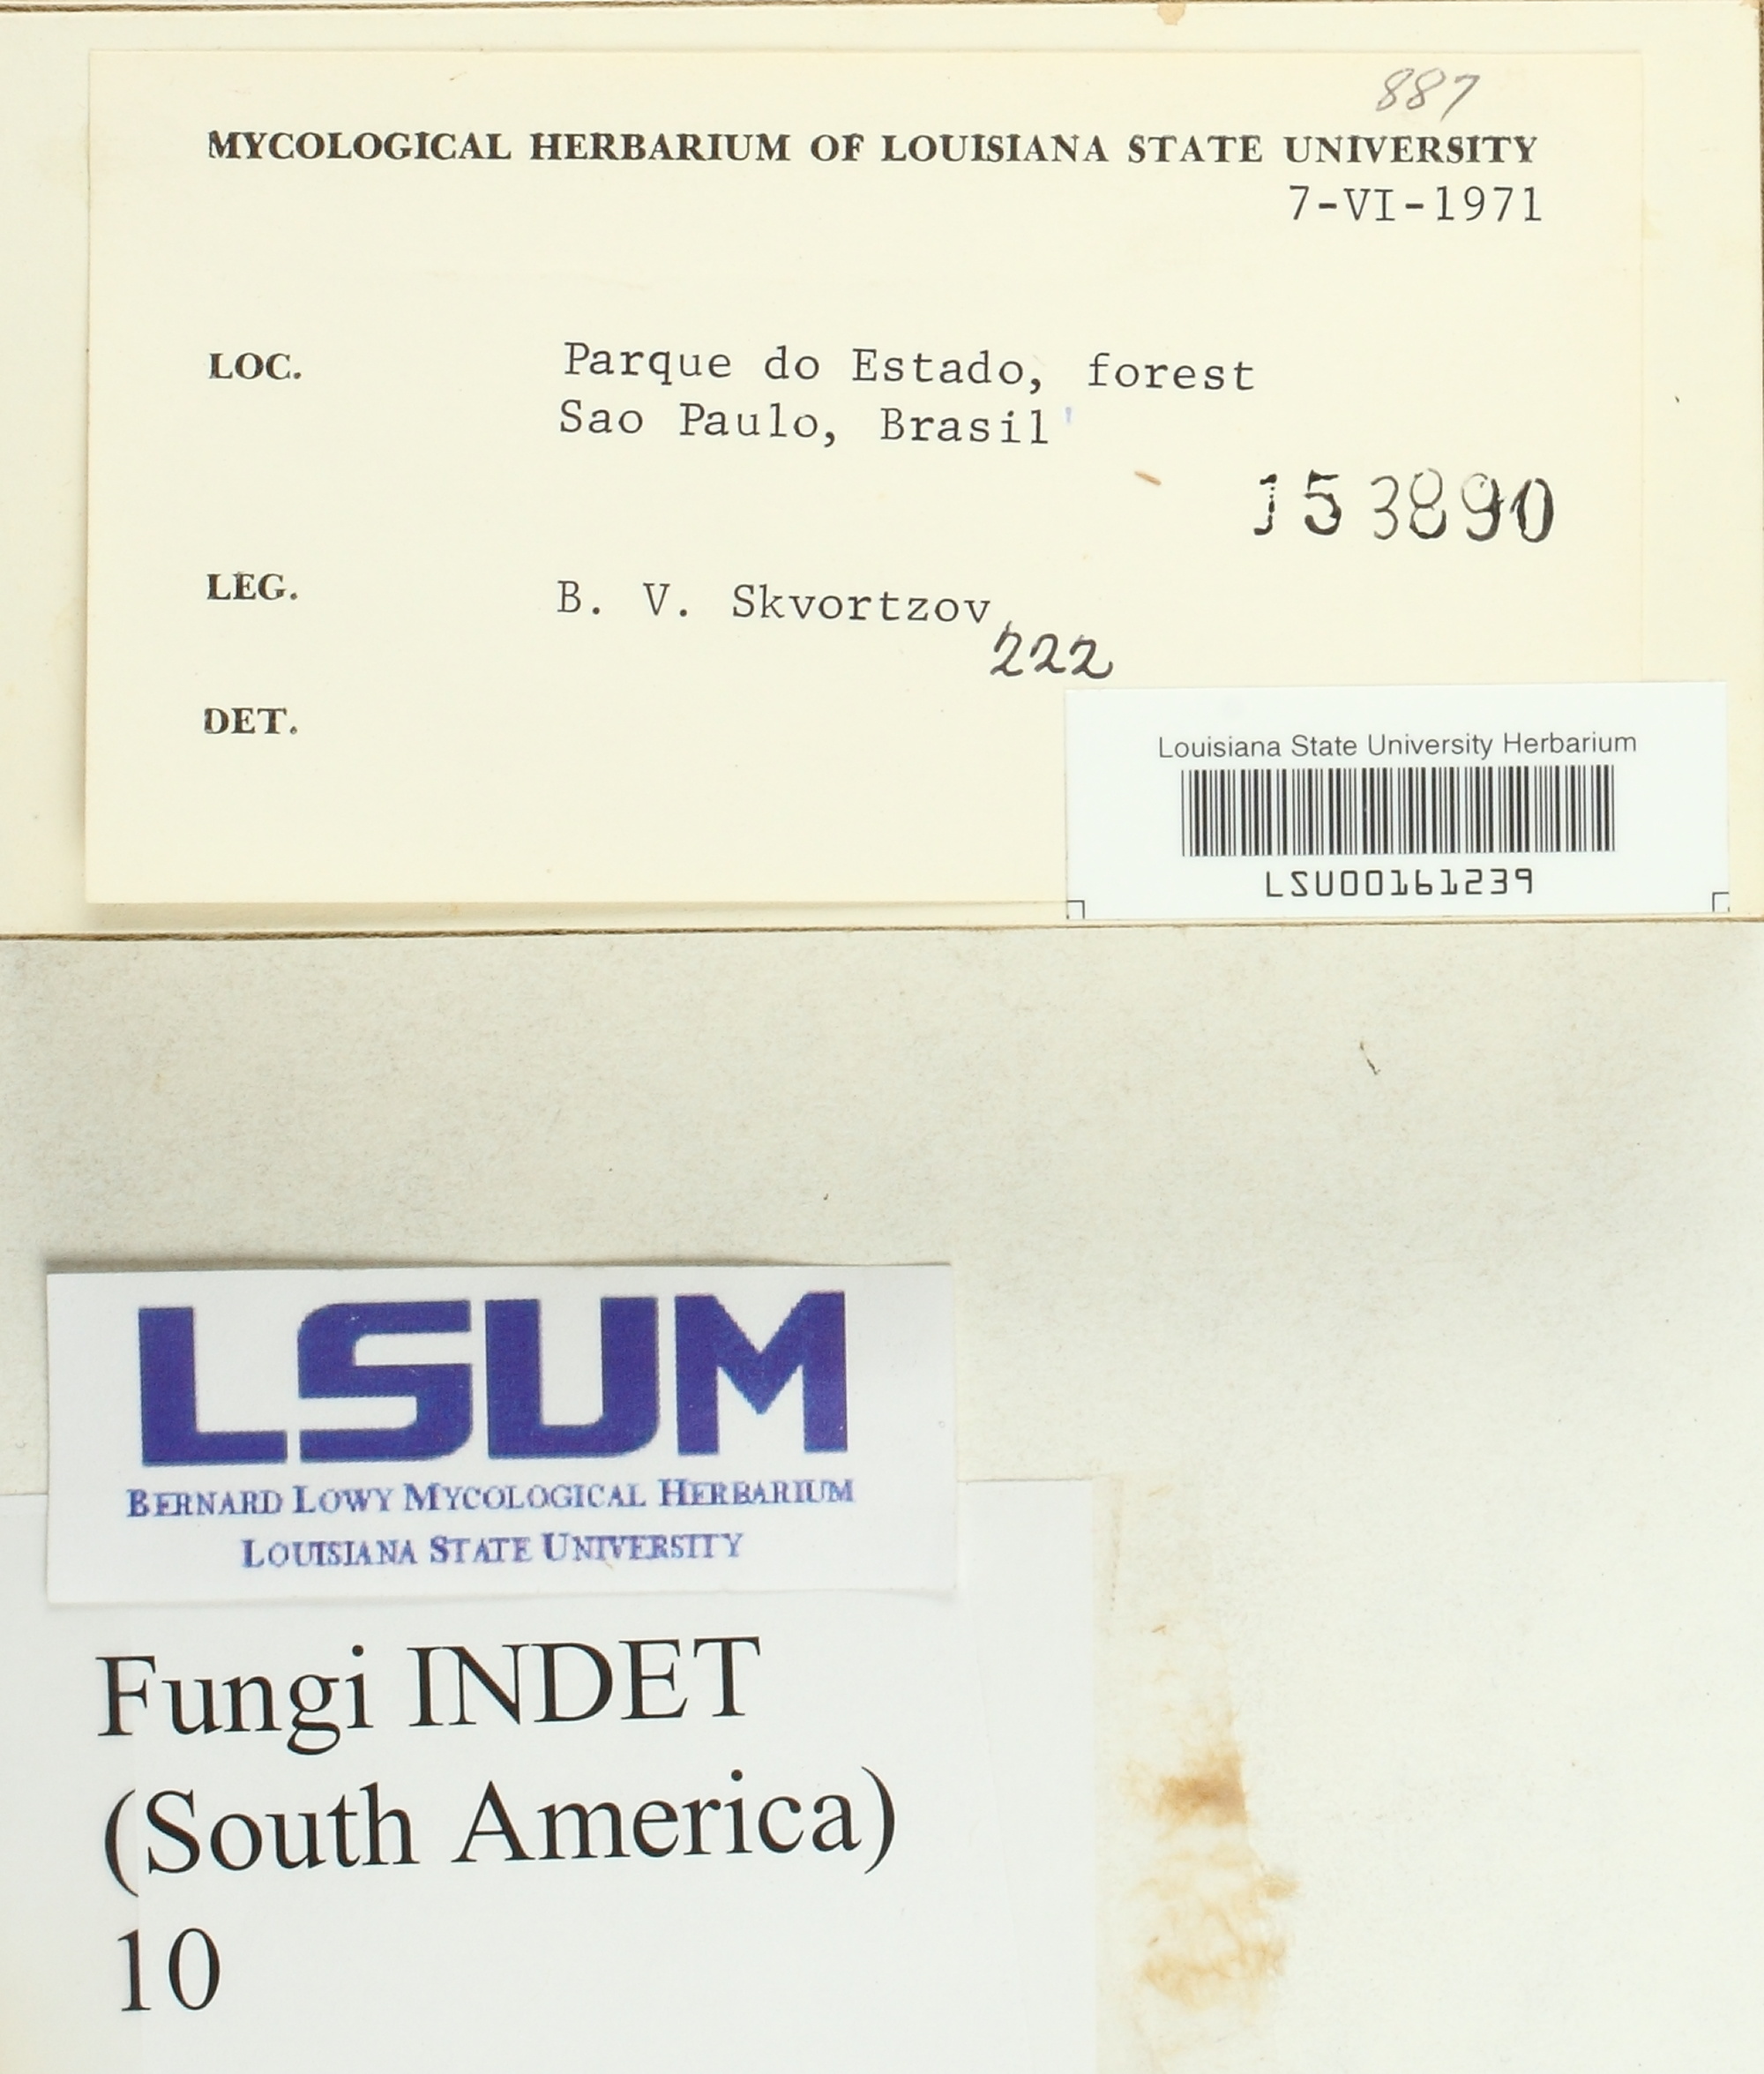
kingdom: Fungi
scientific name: Fungi
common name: Fungi
